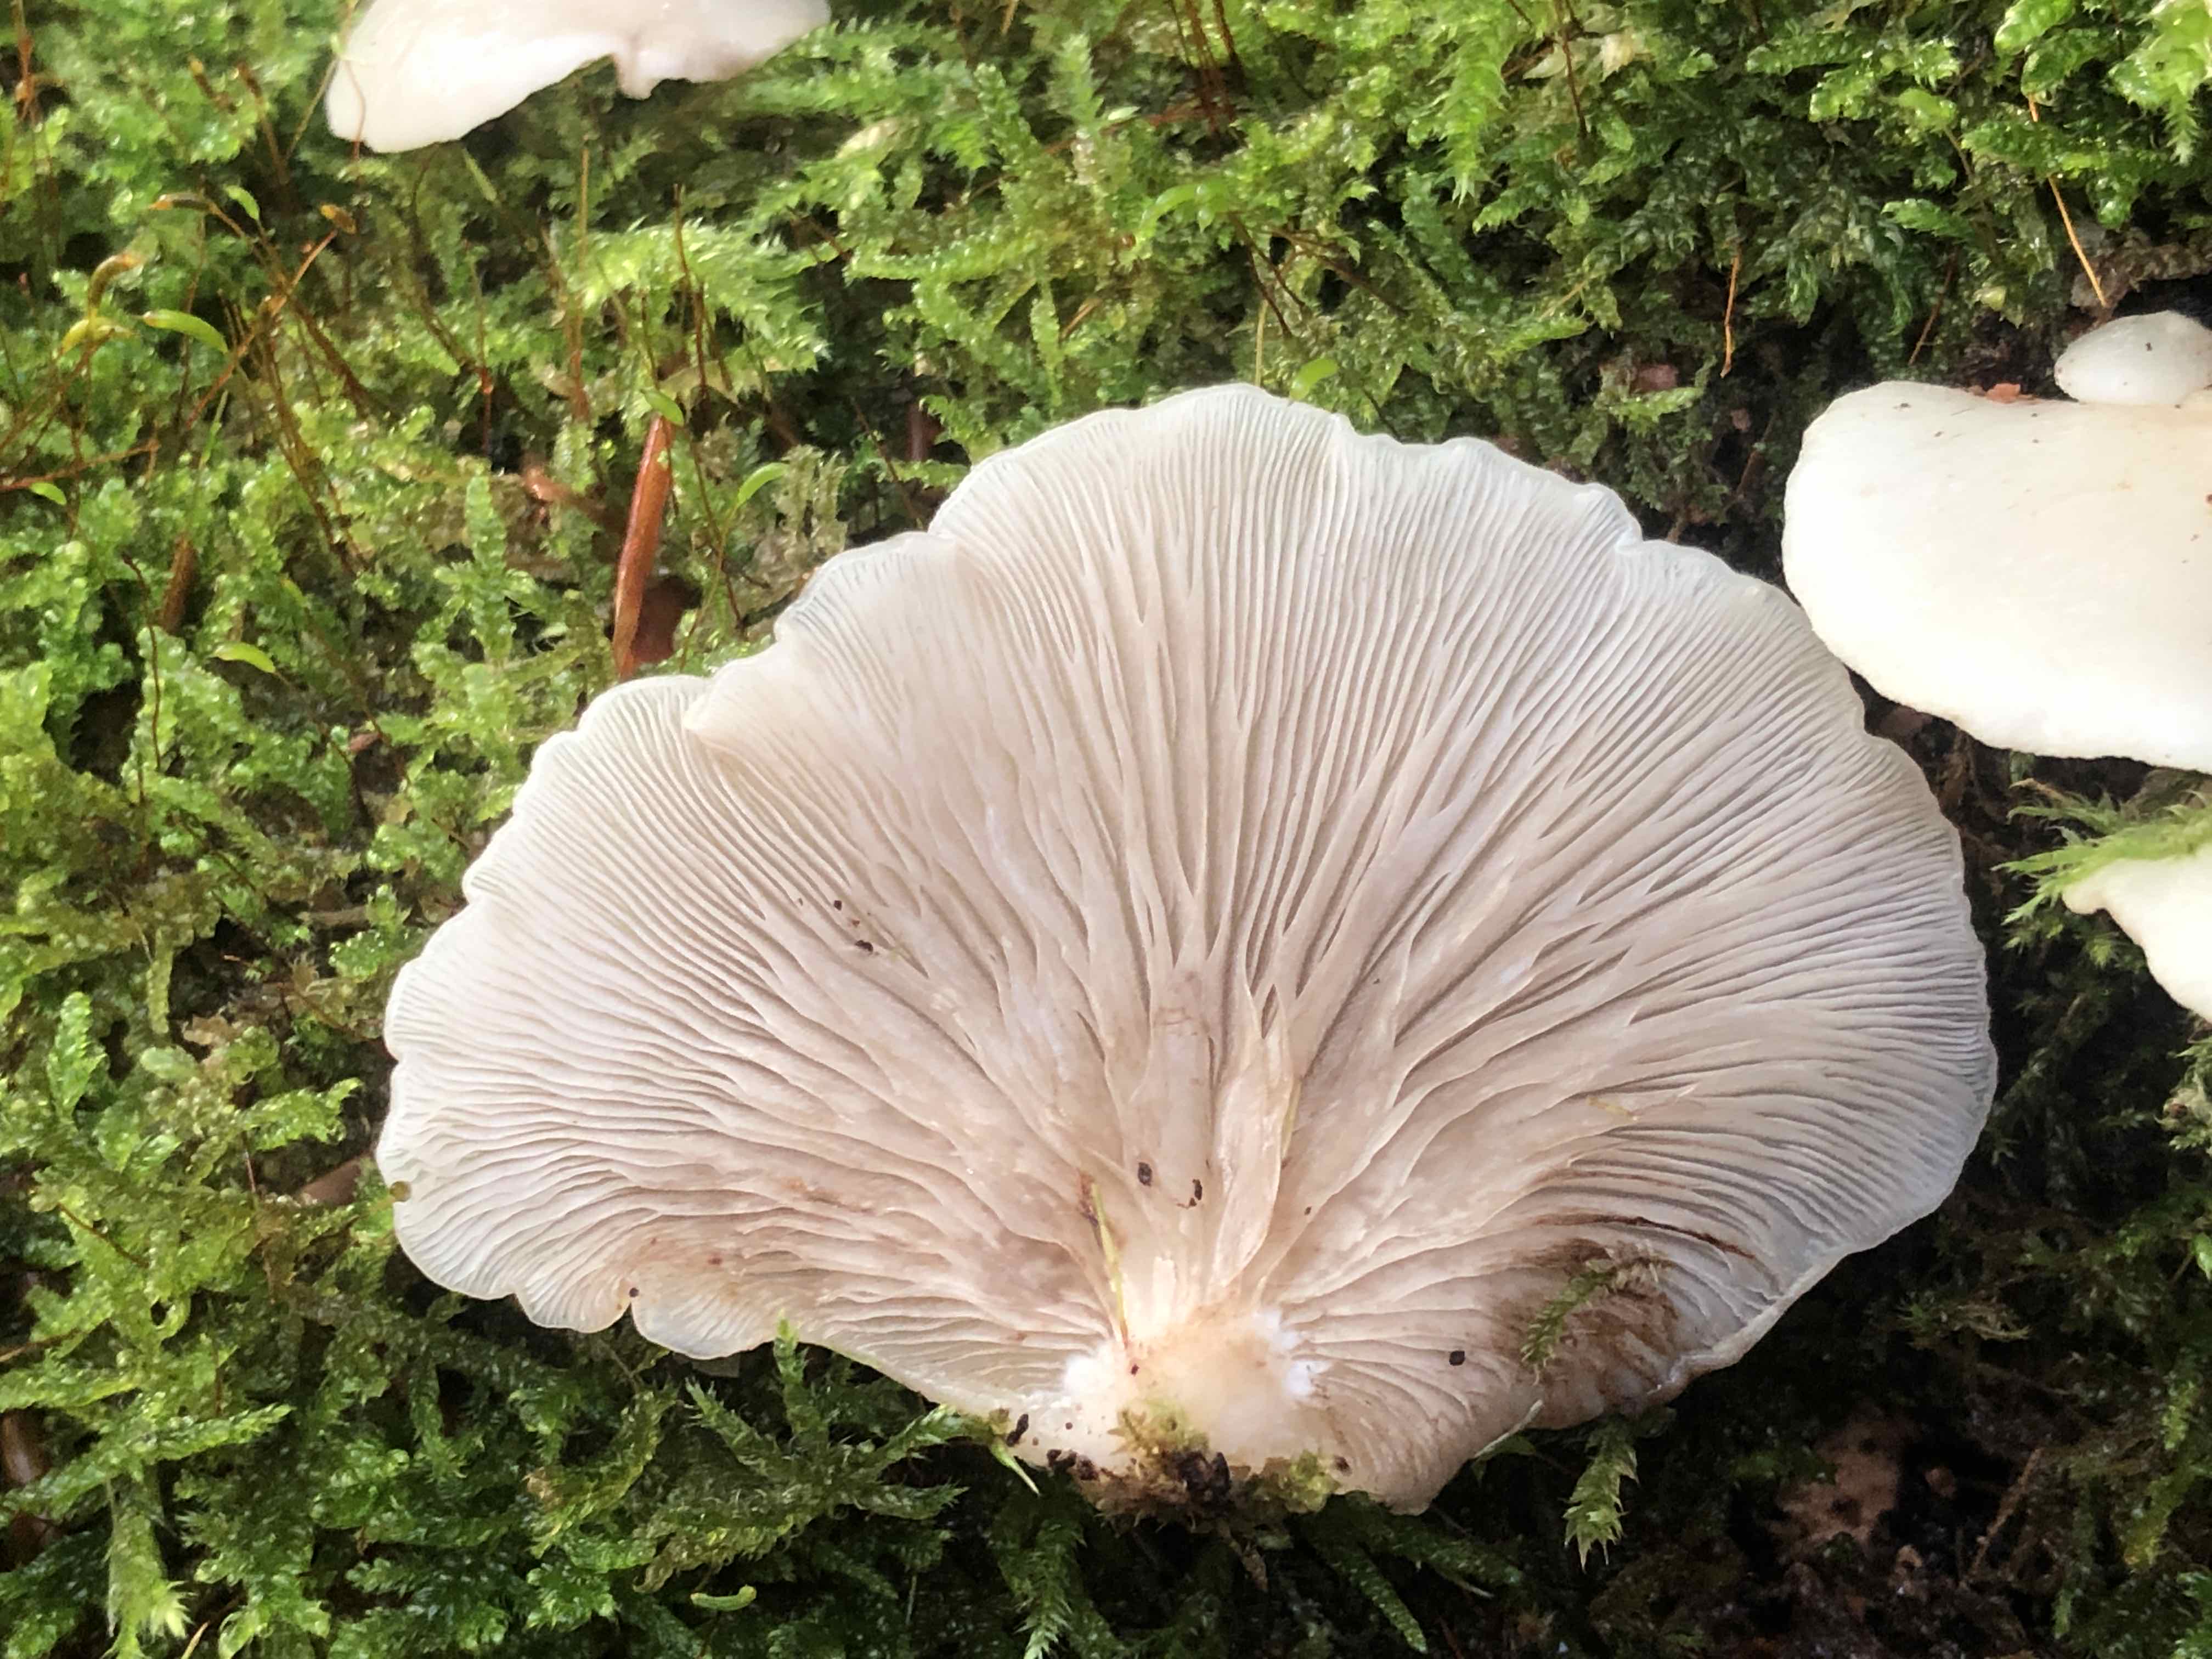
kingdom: Fungi
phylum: Basidiomycota
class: Agaricomycetes
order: Agaricales
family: Crepidotaceae
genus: Crepidotus
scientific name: Crepidotus mollis
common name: blød muslingesvamp
